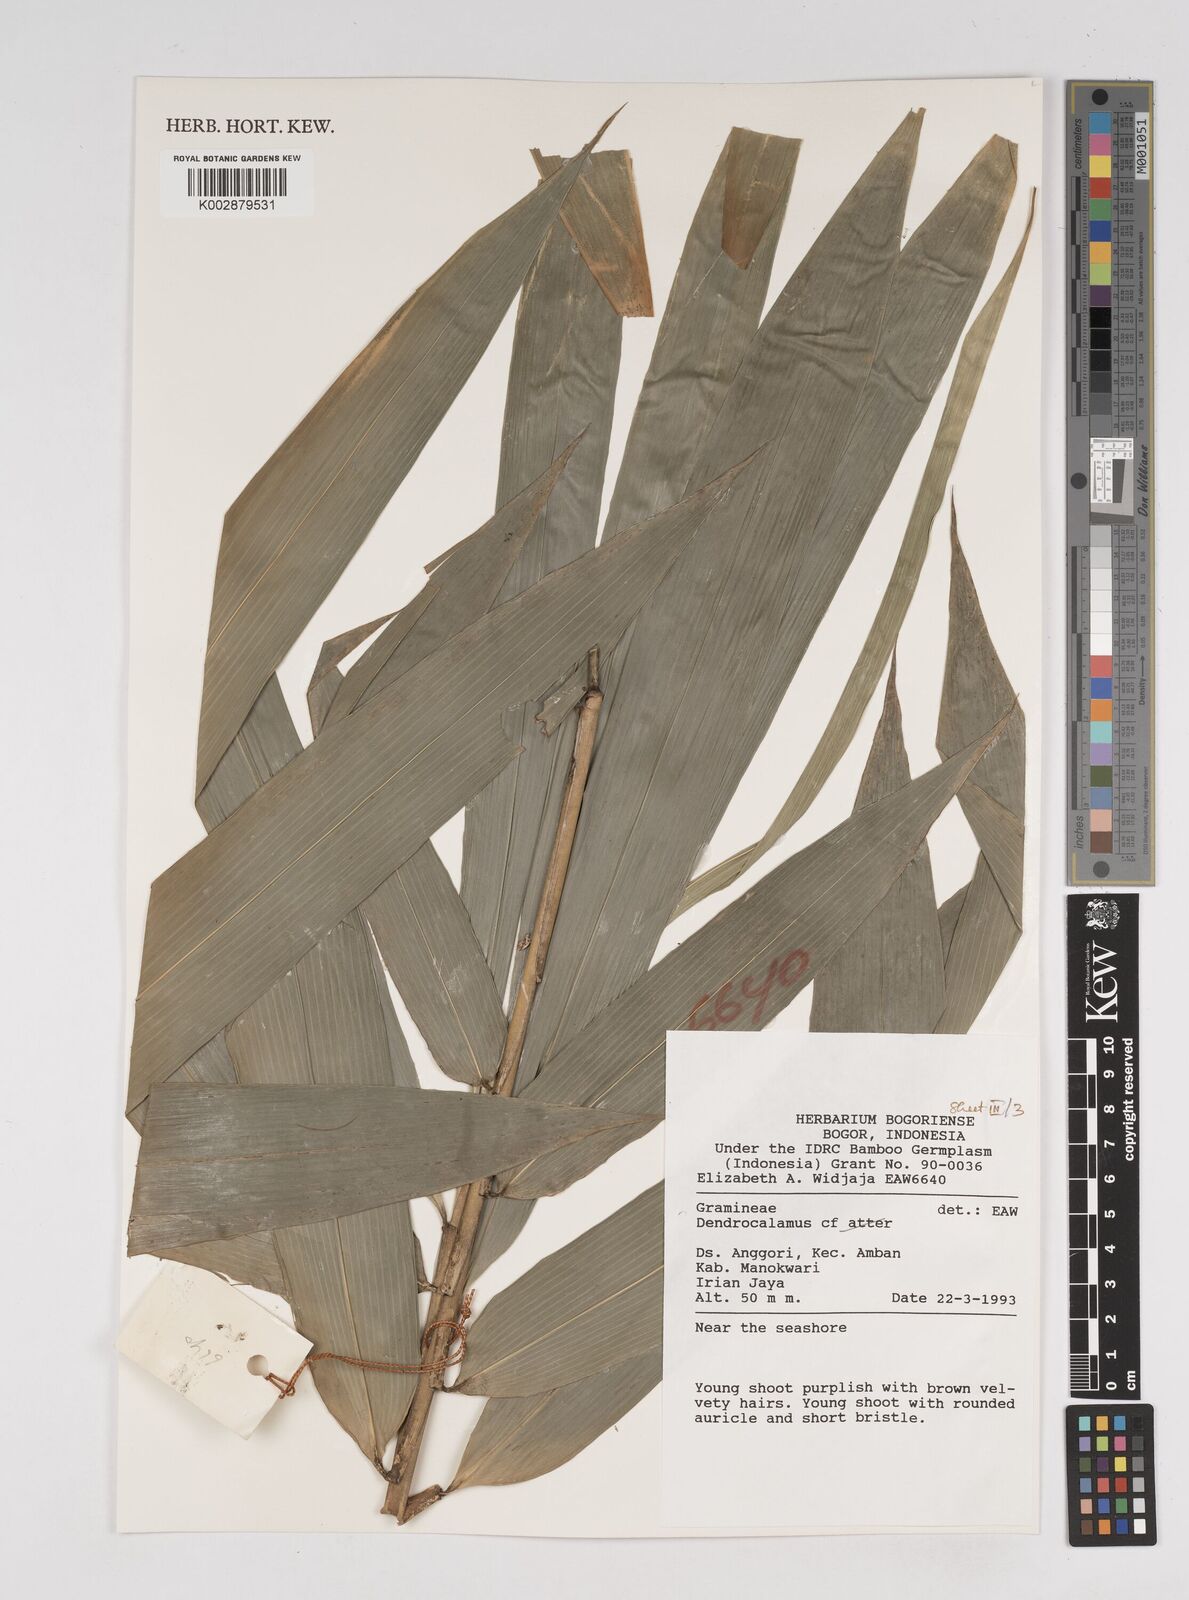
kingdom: Plantae
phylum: Tracheophyta
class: Liliopsida
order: Poales
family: Poaceae
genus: Dendrocalamus
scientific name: Dendrocalamus
